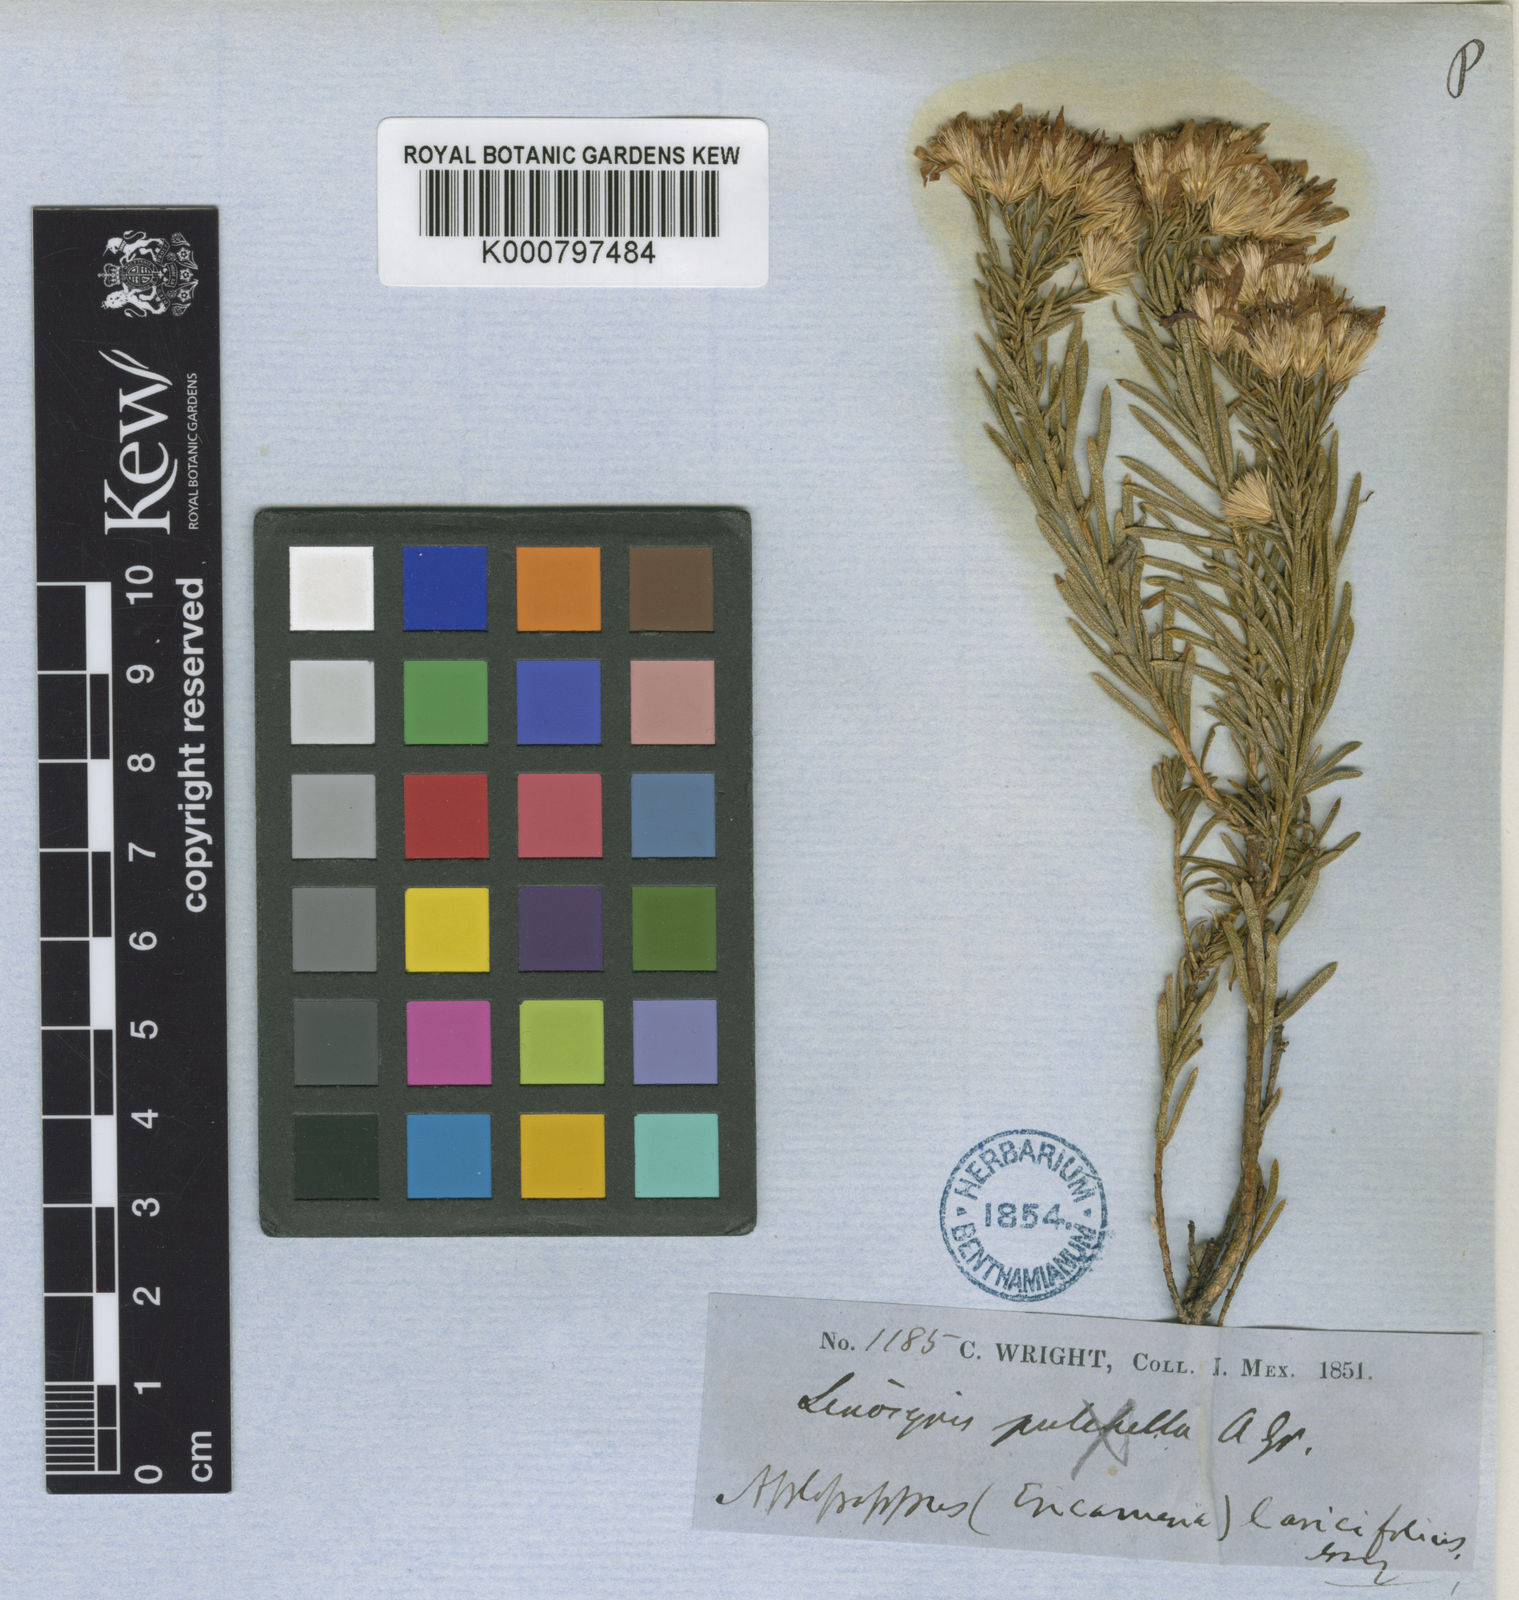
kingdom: Plantae
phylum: Tracheophyta
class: Magnoliopsida
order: Asterales
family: Asteraceae
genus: Ericameria
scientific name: Ericameria laricifolia
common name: Turpentine-bush
